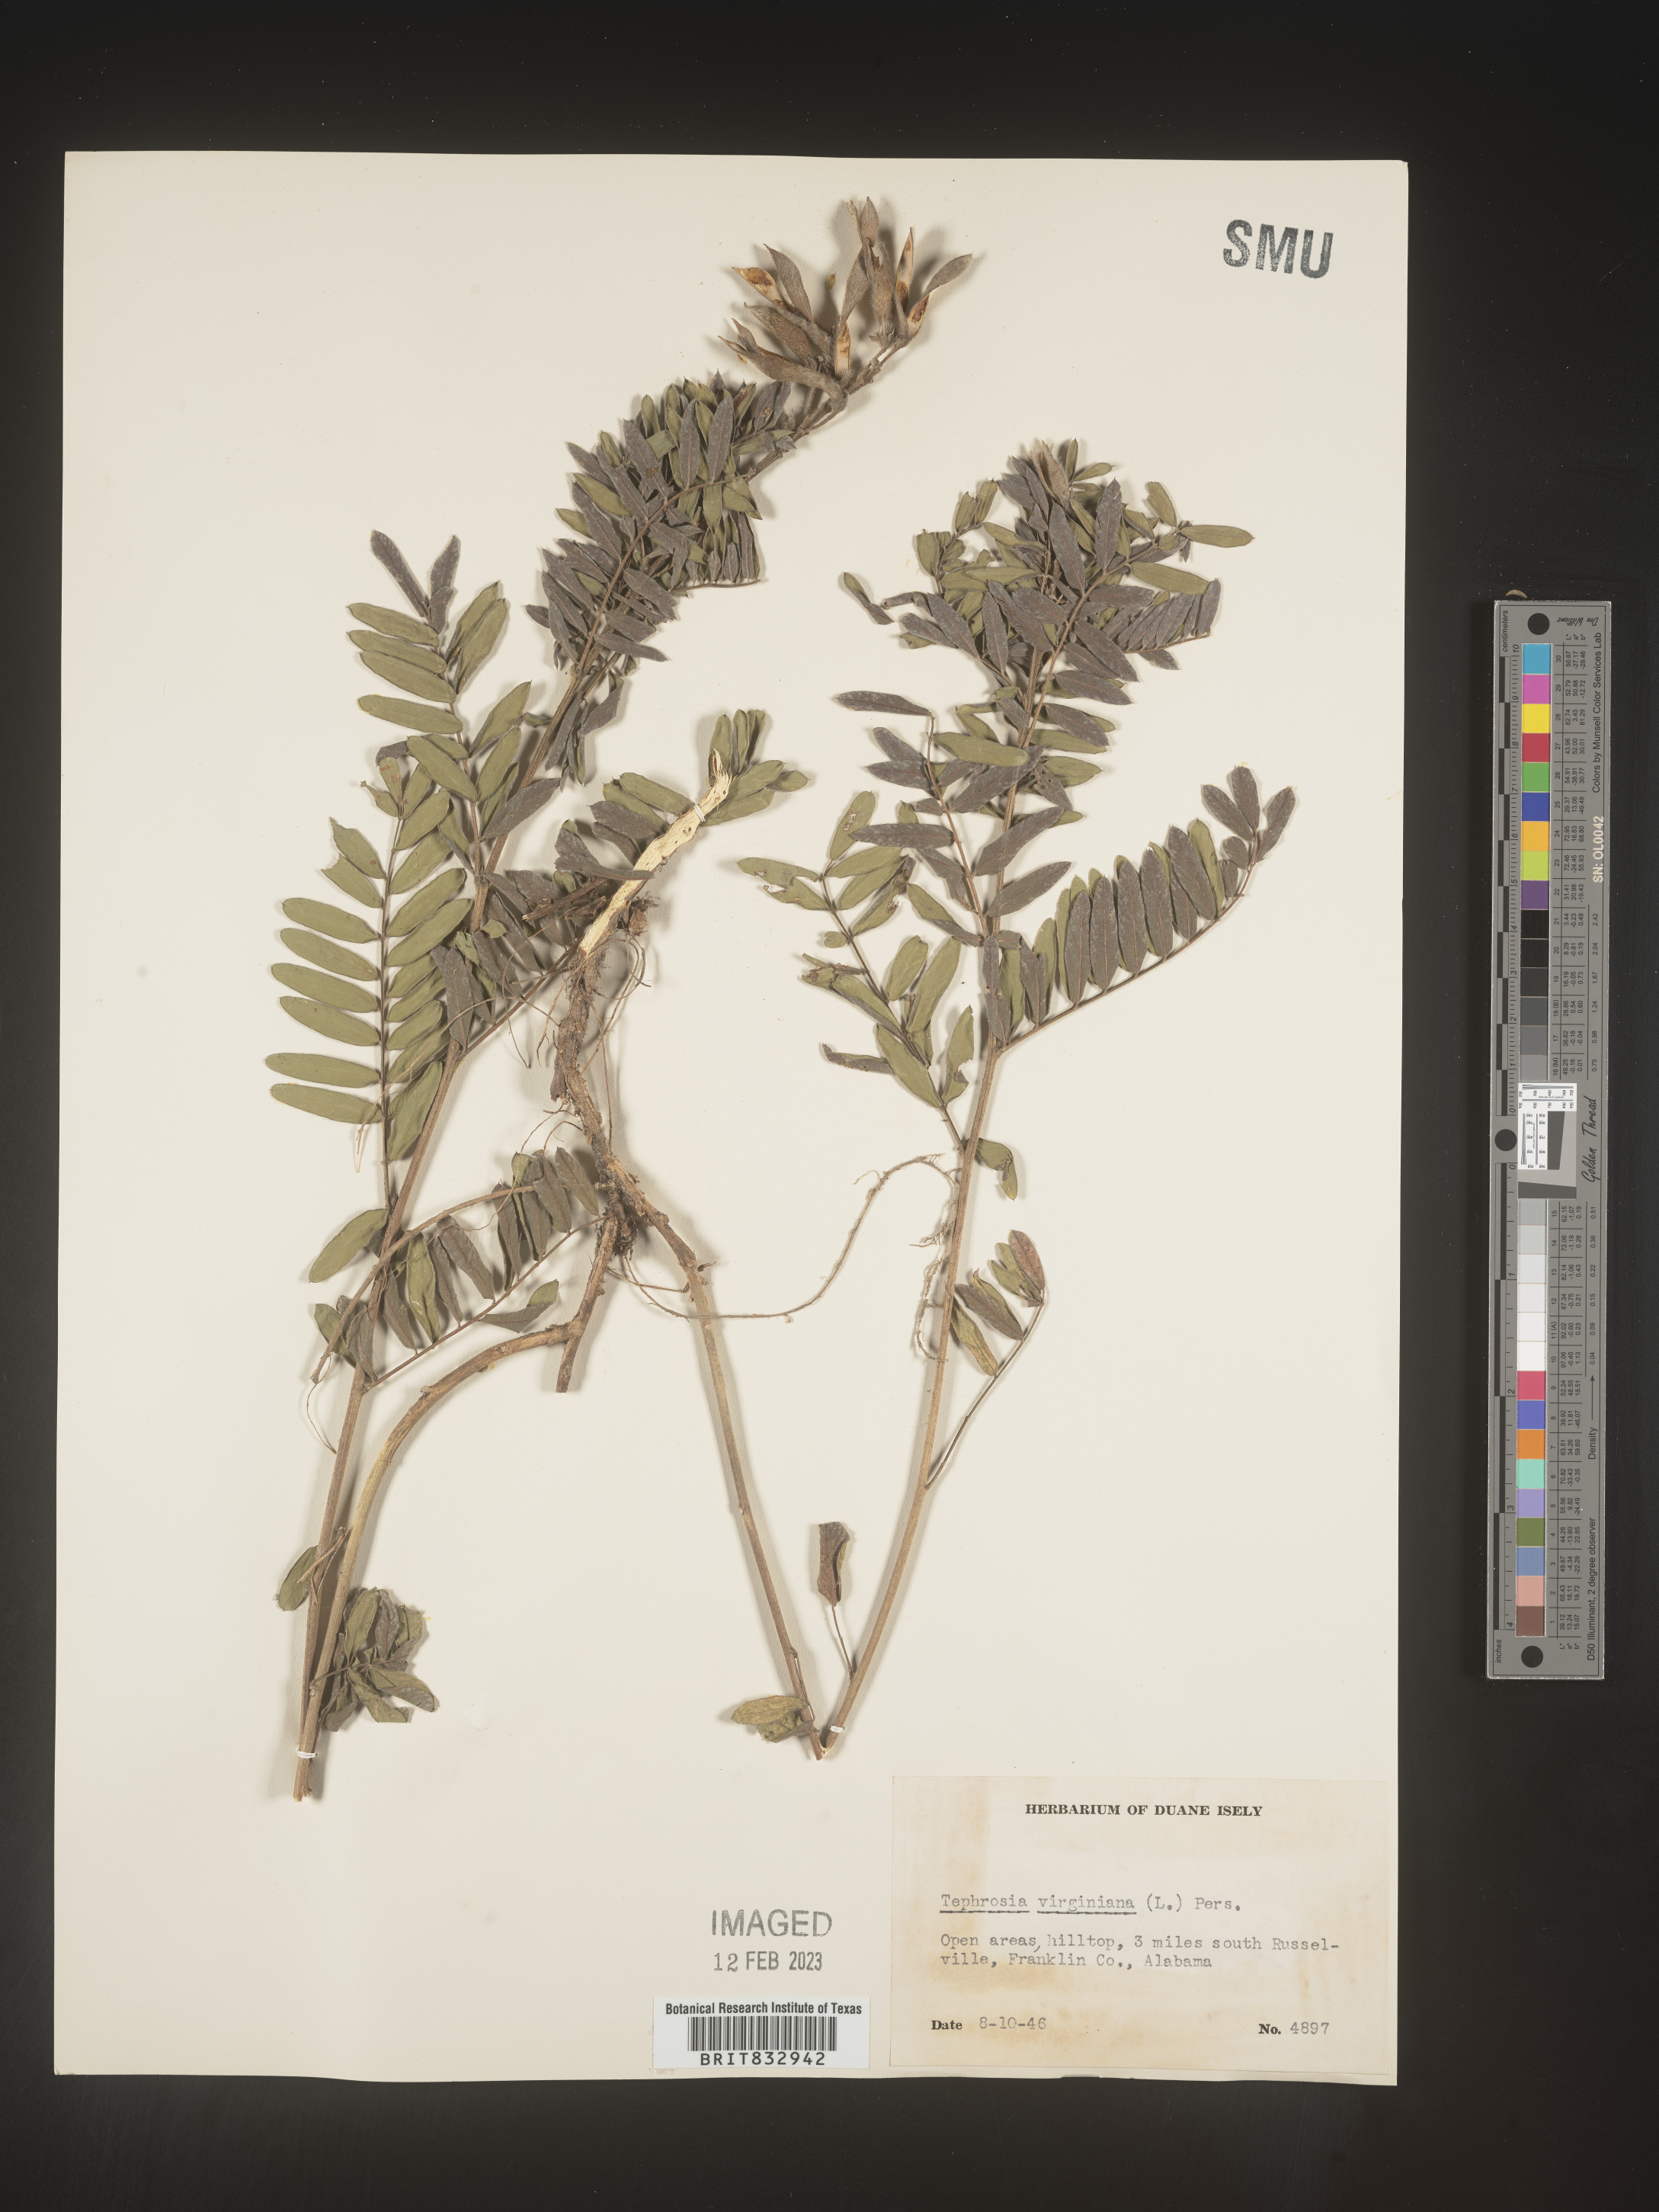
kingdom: Plantae
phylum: Tracheophyta
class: Magnoliopsida
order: Fabales
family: Fabaceae
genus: Tephrosia
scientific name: Tephrosia virginiana
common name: Rabbit-pea
